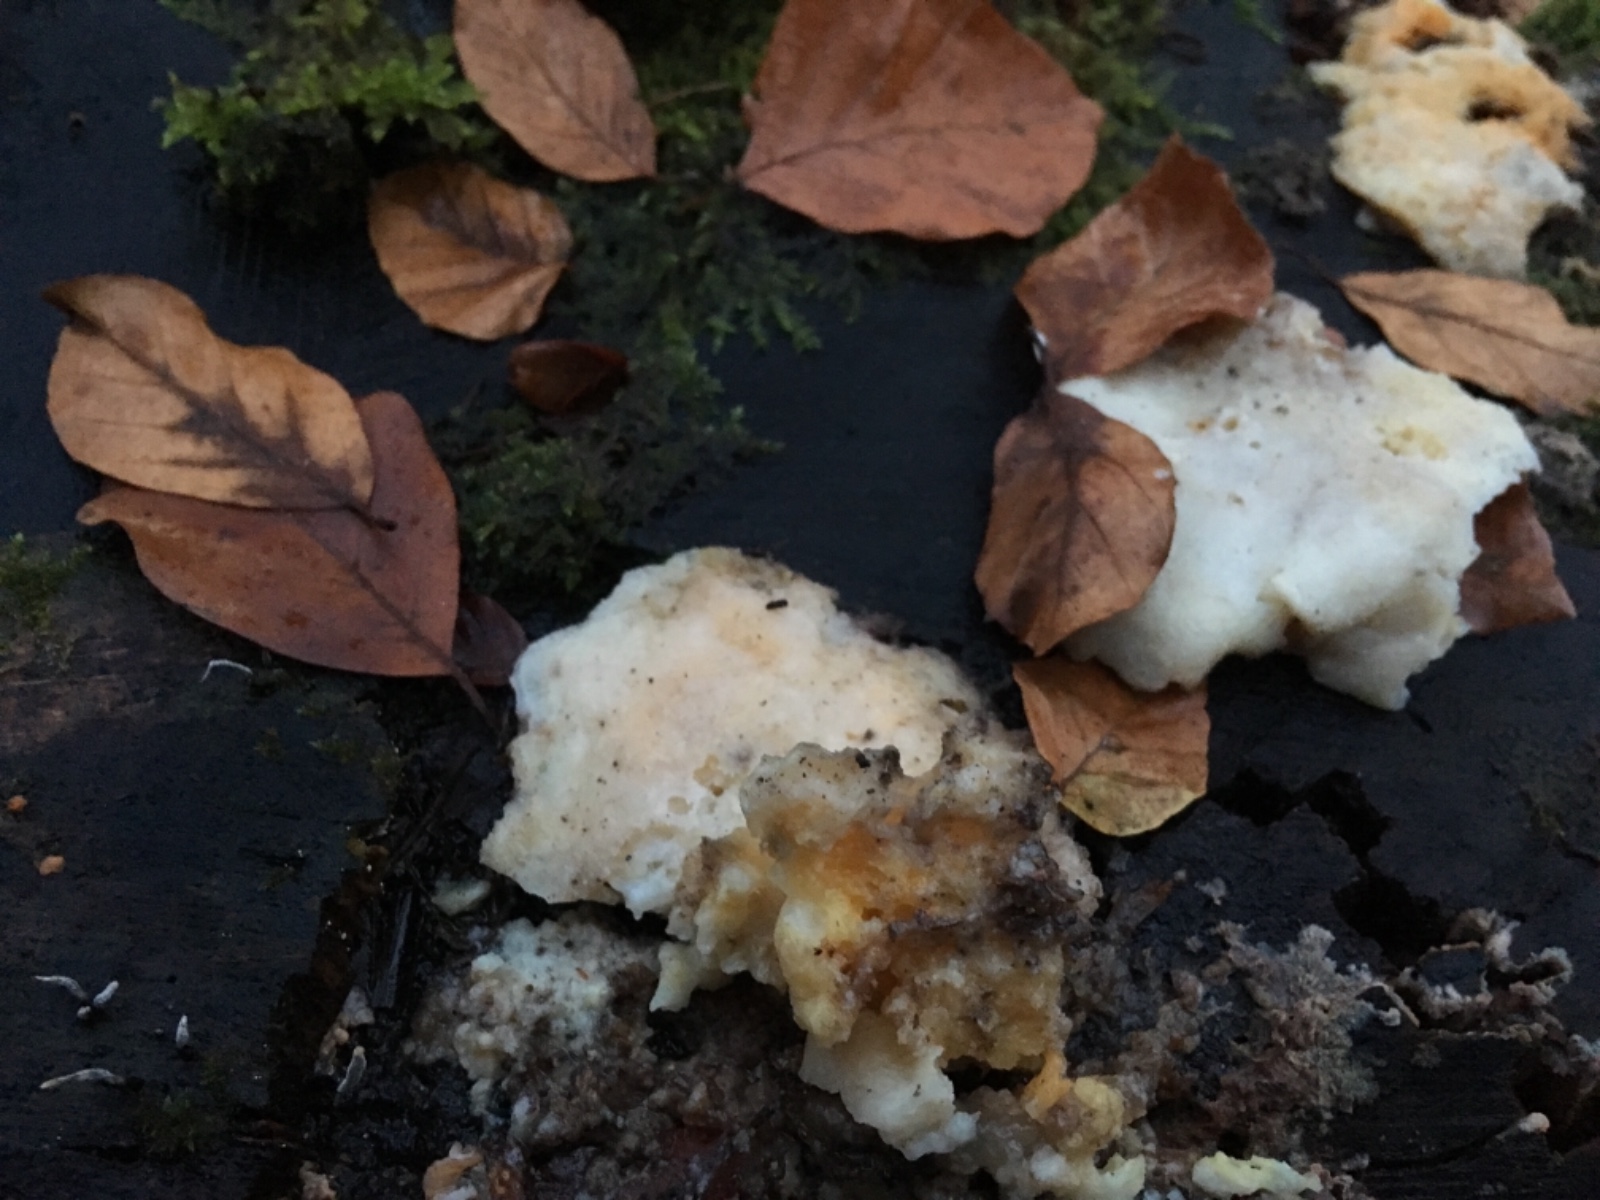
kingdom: Fungi
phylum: Basidiomycota
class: Agaricomycetes
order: Polyporales
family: Meruliaceae
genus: Phlebia
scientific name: Phlebia radiata
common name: stråle-åresvamp
